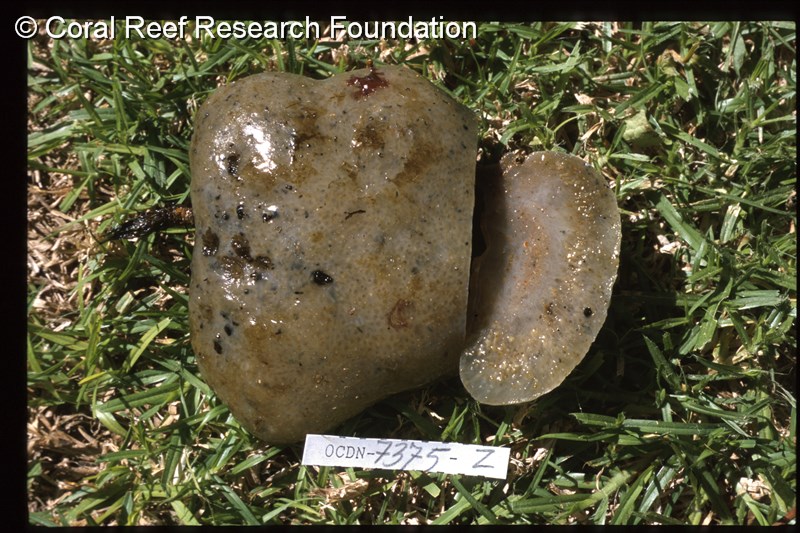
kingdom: Animalia
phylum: Chordata
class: Ascidiacea
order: Aplousobranchia
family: Clavelinidae
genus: Nephtheis
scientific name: Nephtheis
